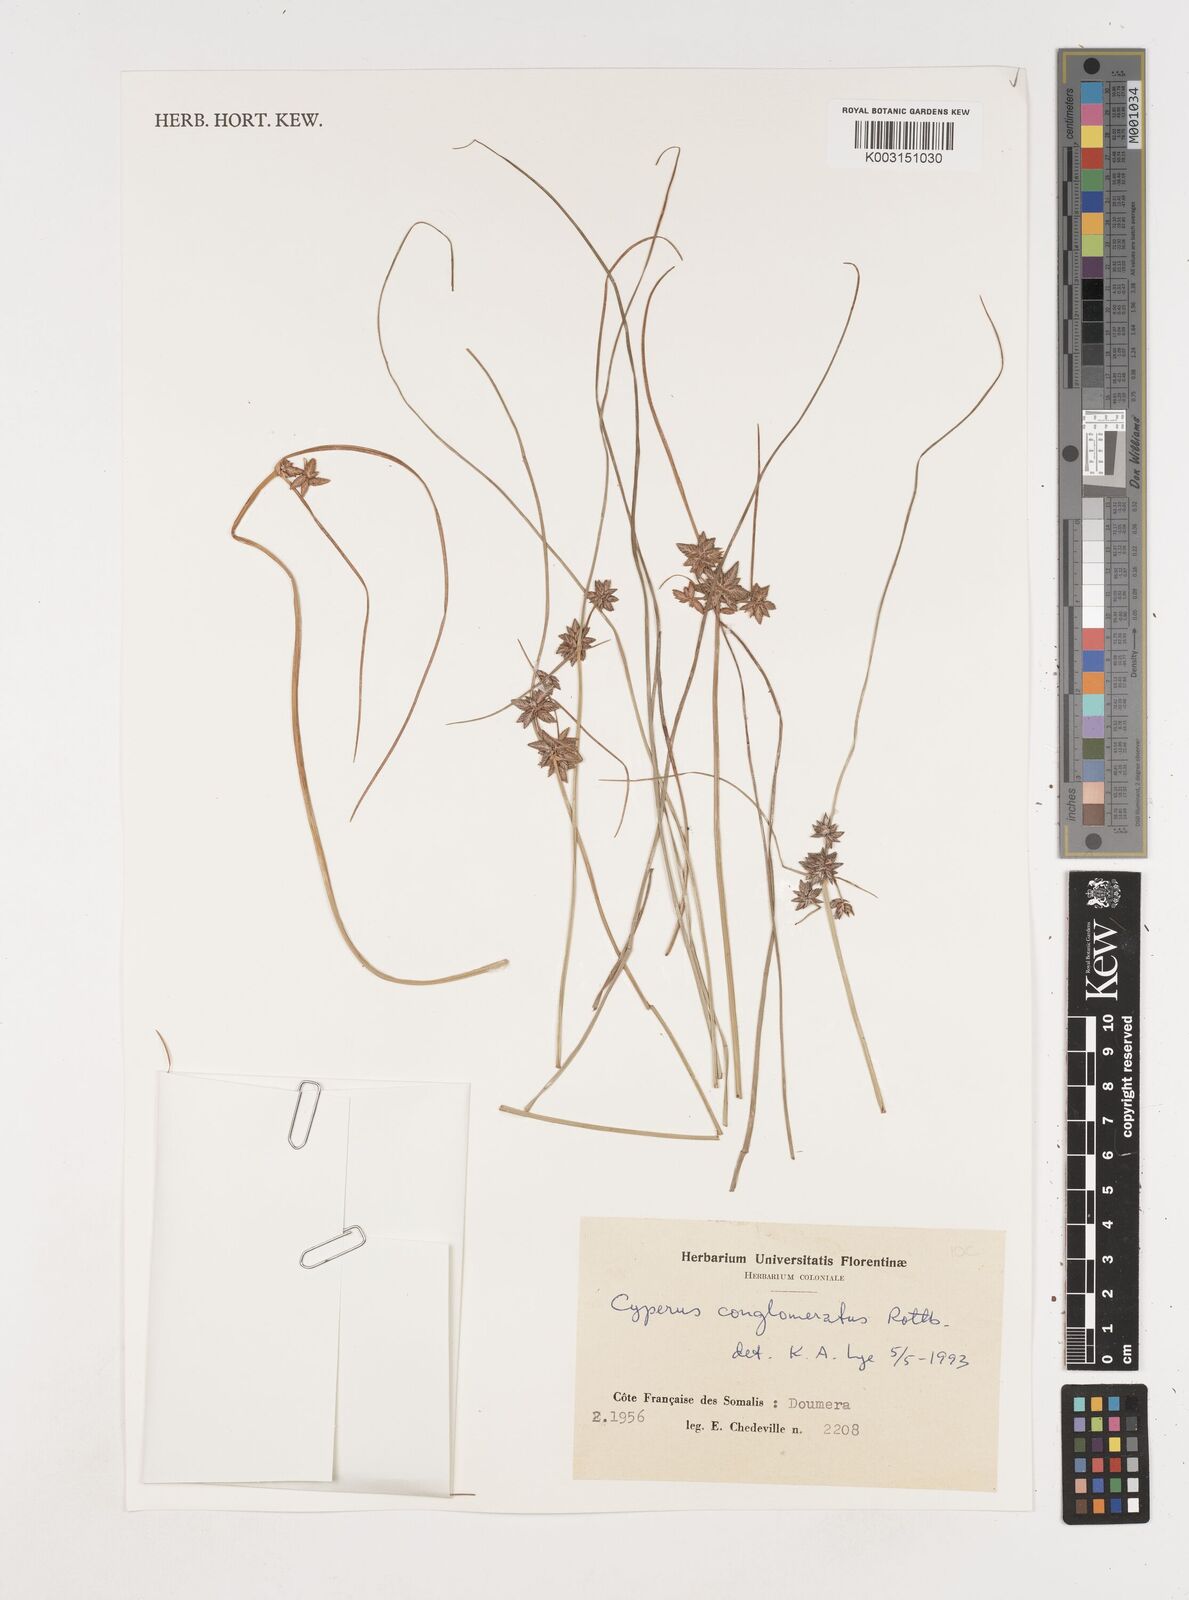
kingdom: Plantae
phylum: Tracheophyta
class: Liliopsida
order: Poales
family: Cyperaceae
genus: Cyperus
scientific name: Cyperus conglomeratus
